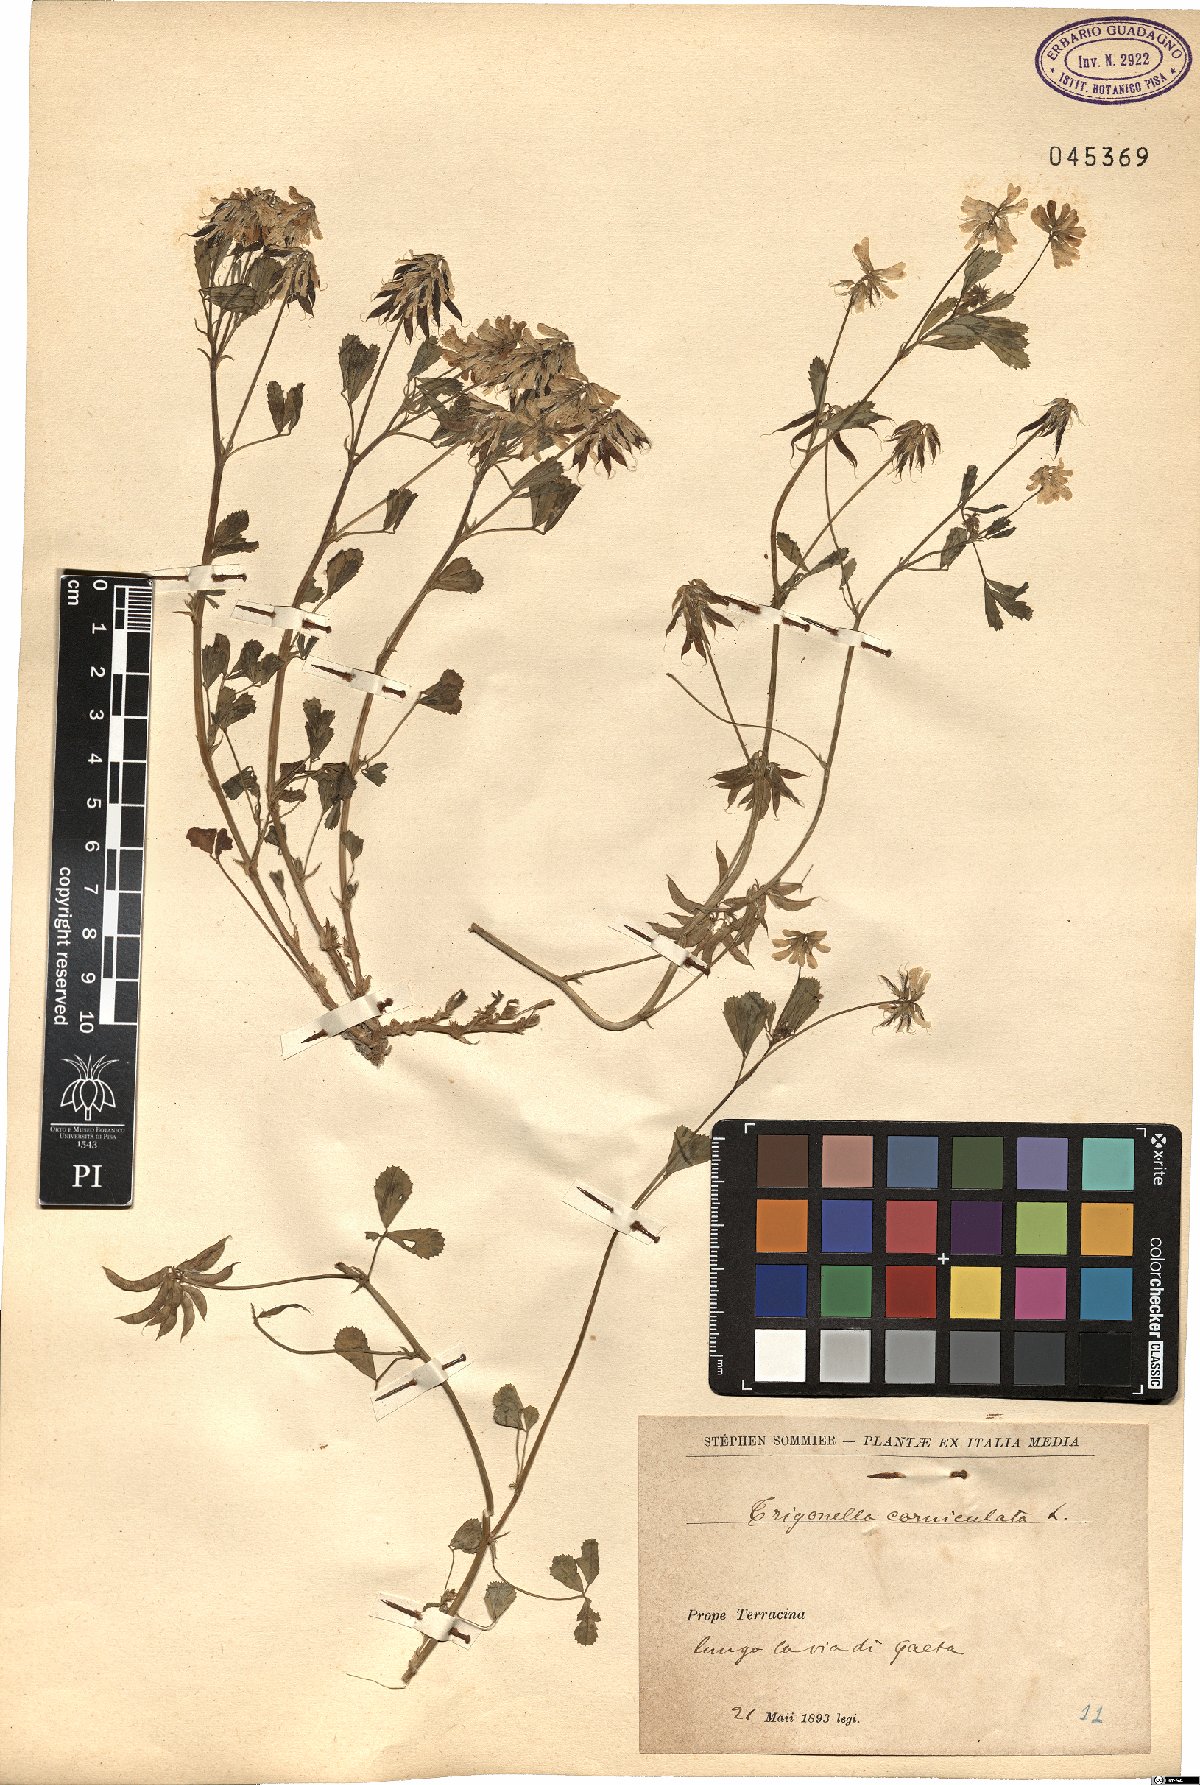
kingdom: Plantae
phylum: Tracheophyta
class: Magnoliopsida
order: Fabales
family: Fabaceae
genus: Trigonella
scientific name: Trigonella balansae
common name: Sickle-fruited fenugreek
